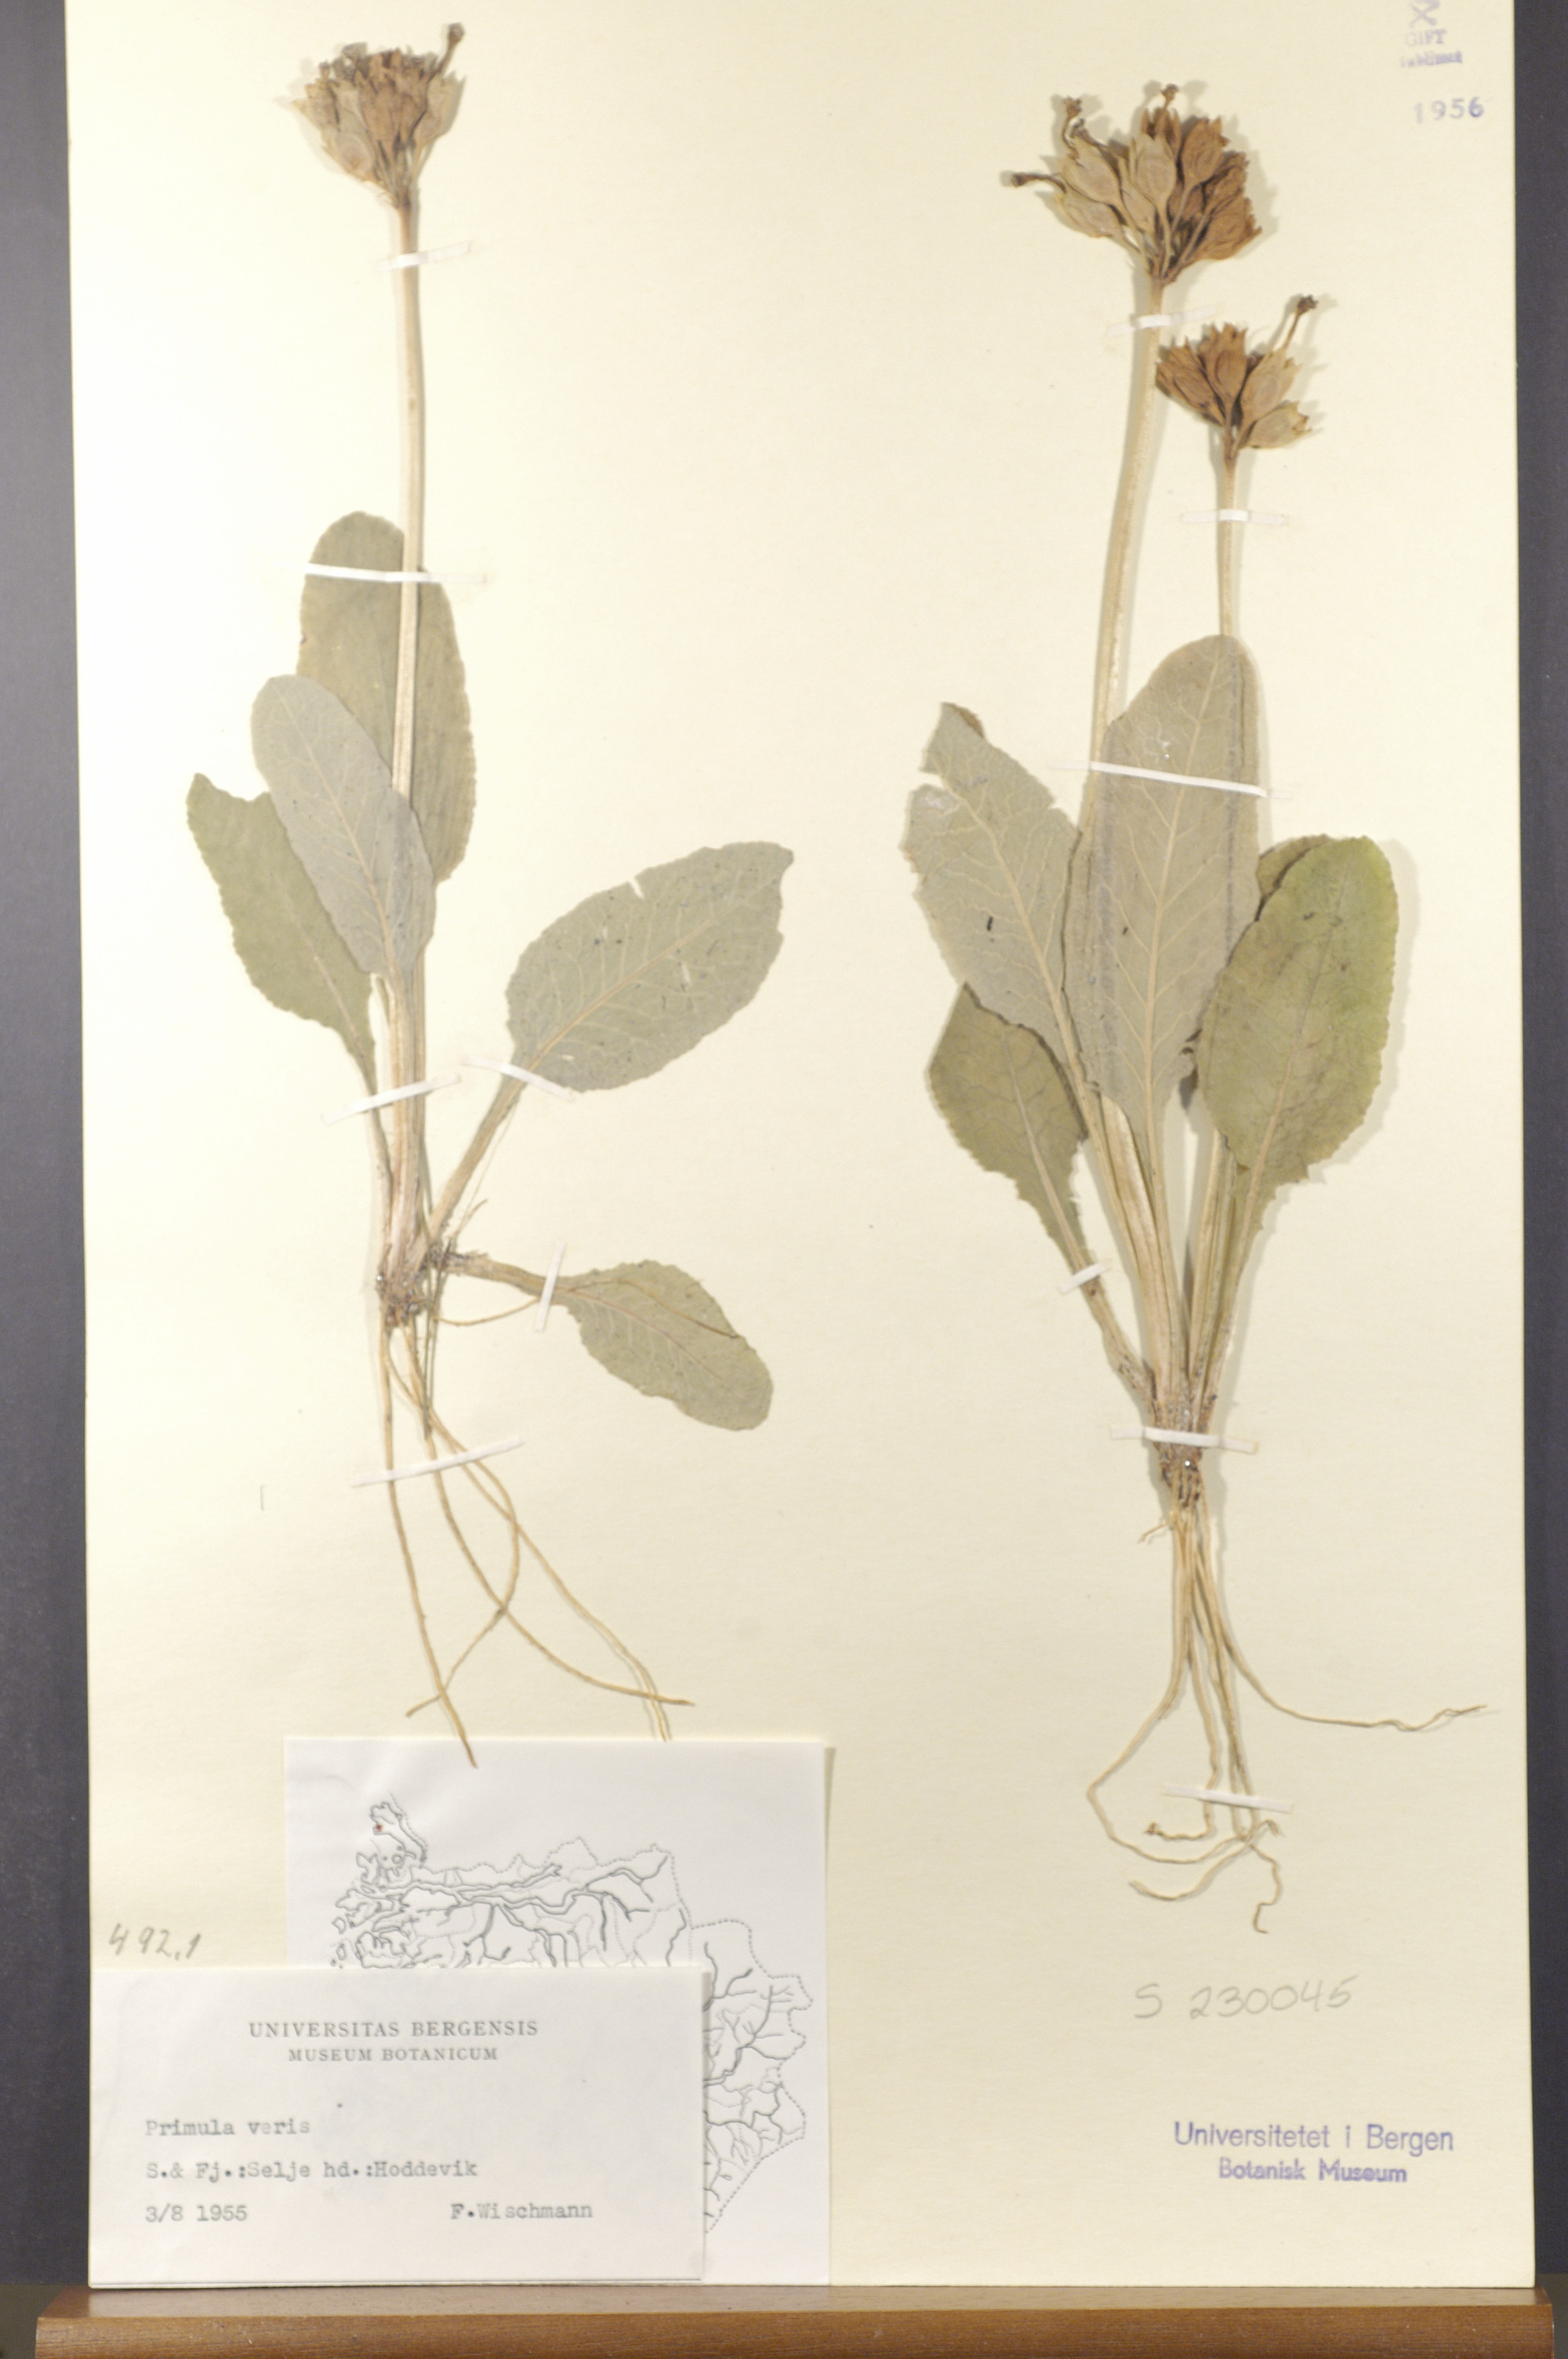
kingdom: Plantae
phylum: Tracheophyta
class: Magnoliopsida
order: Ericales
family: Primulaceae
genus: Primula
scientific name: Primula veris
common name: Cowslip
